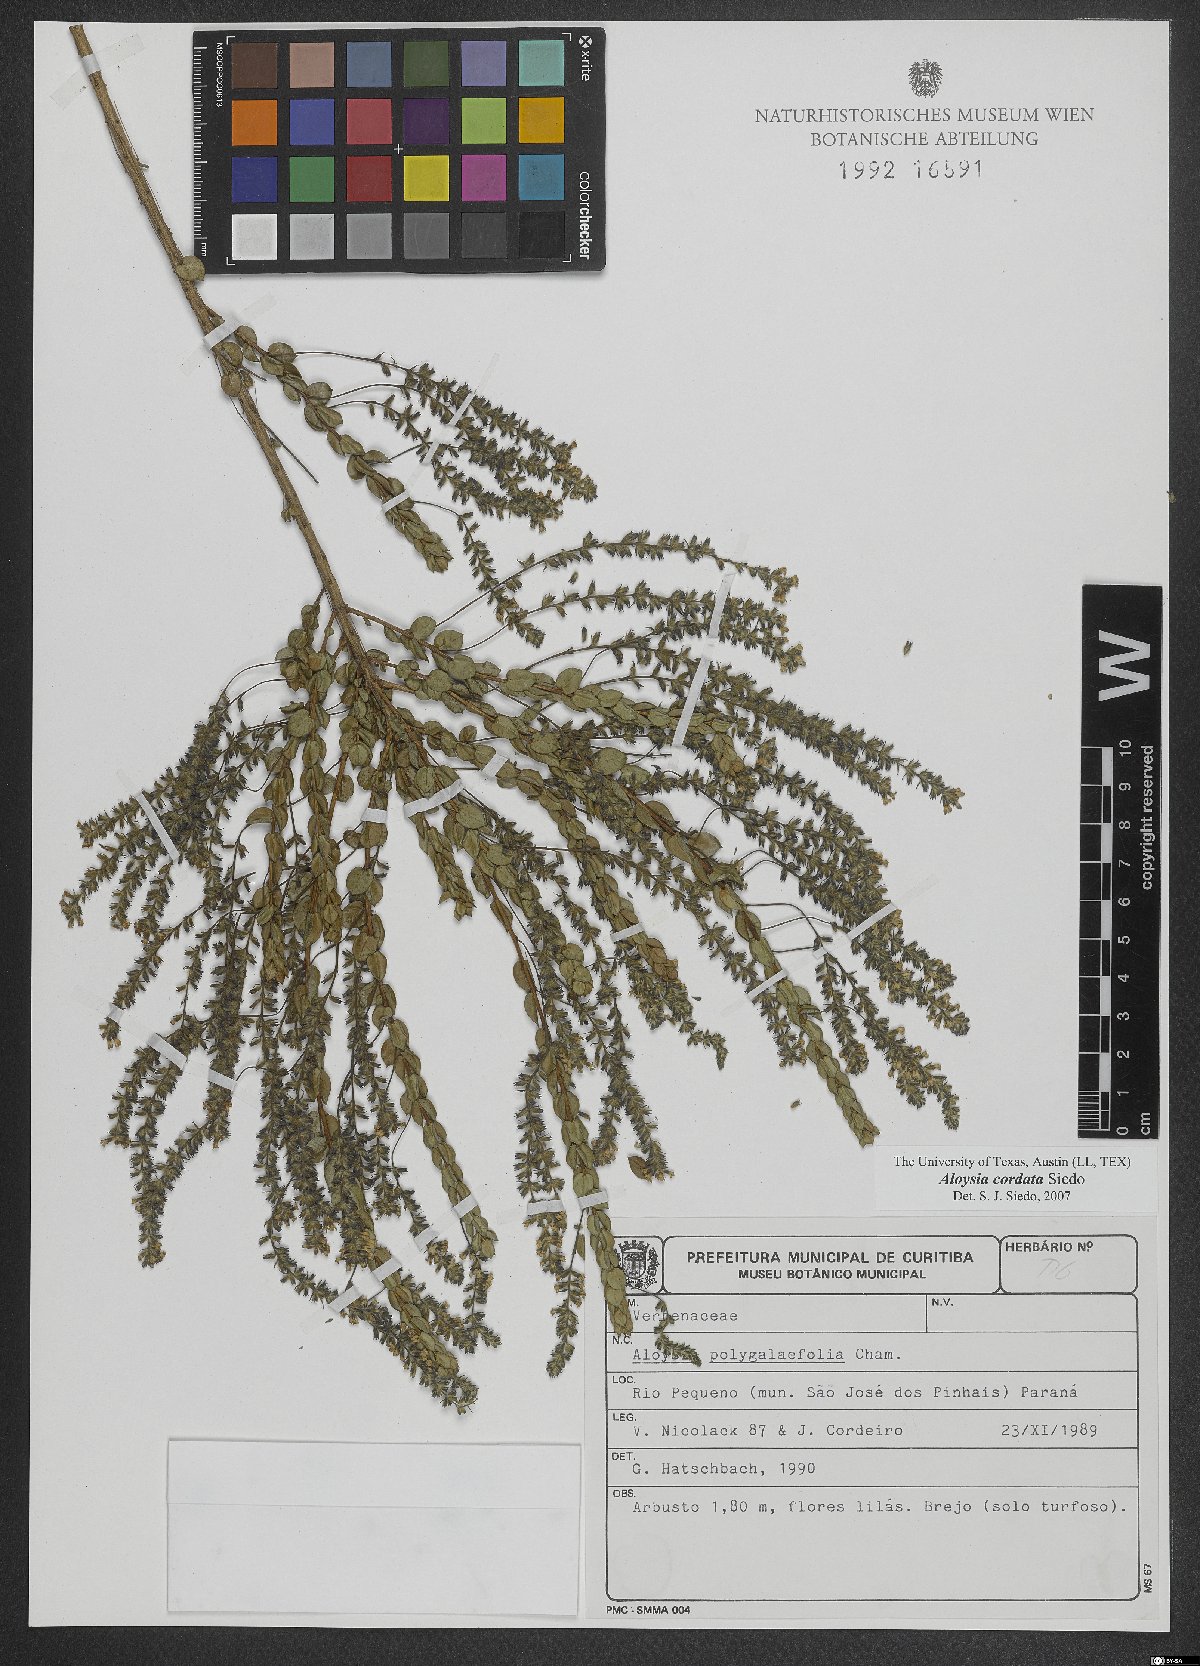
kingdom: Plantae
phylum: Tracheophyta
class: Magnoliopsida
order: Lamiales
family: Verbenaceae
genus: Aloysia
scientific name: Aloysia cordata
